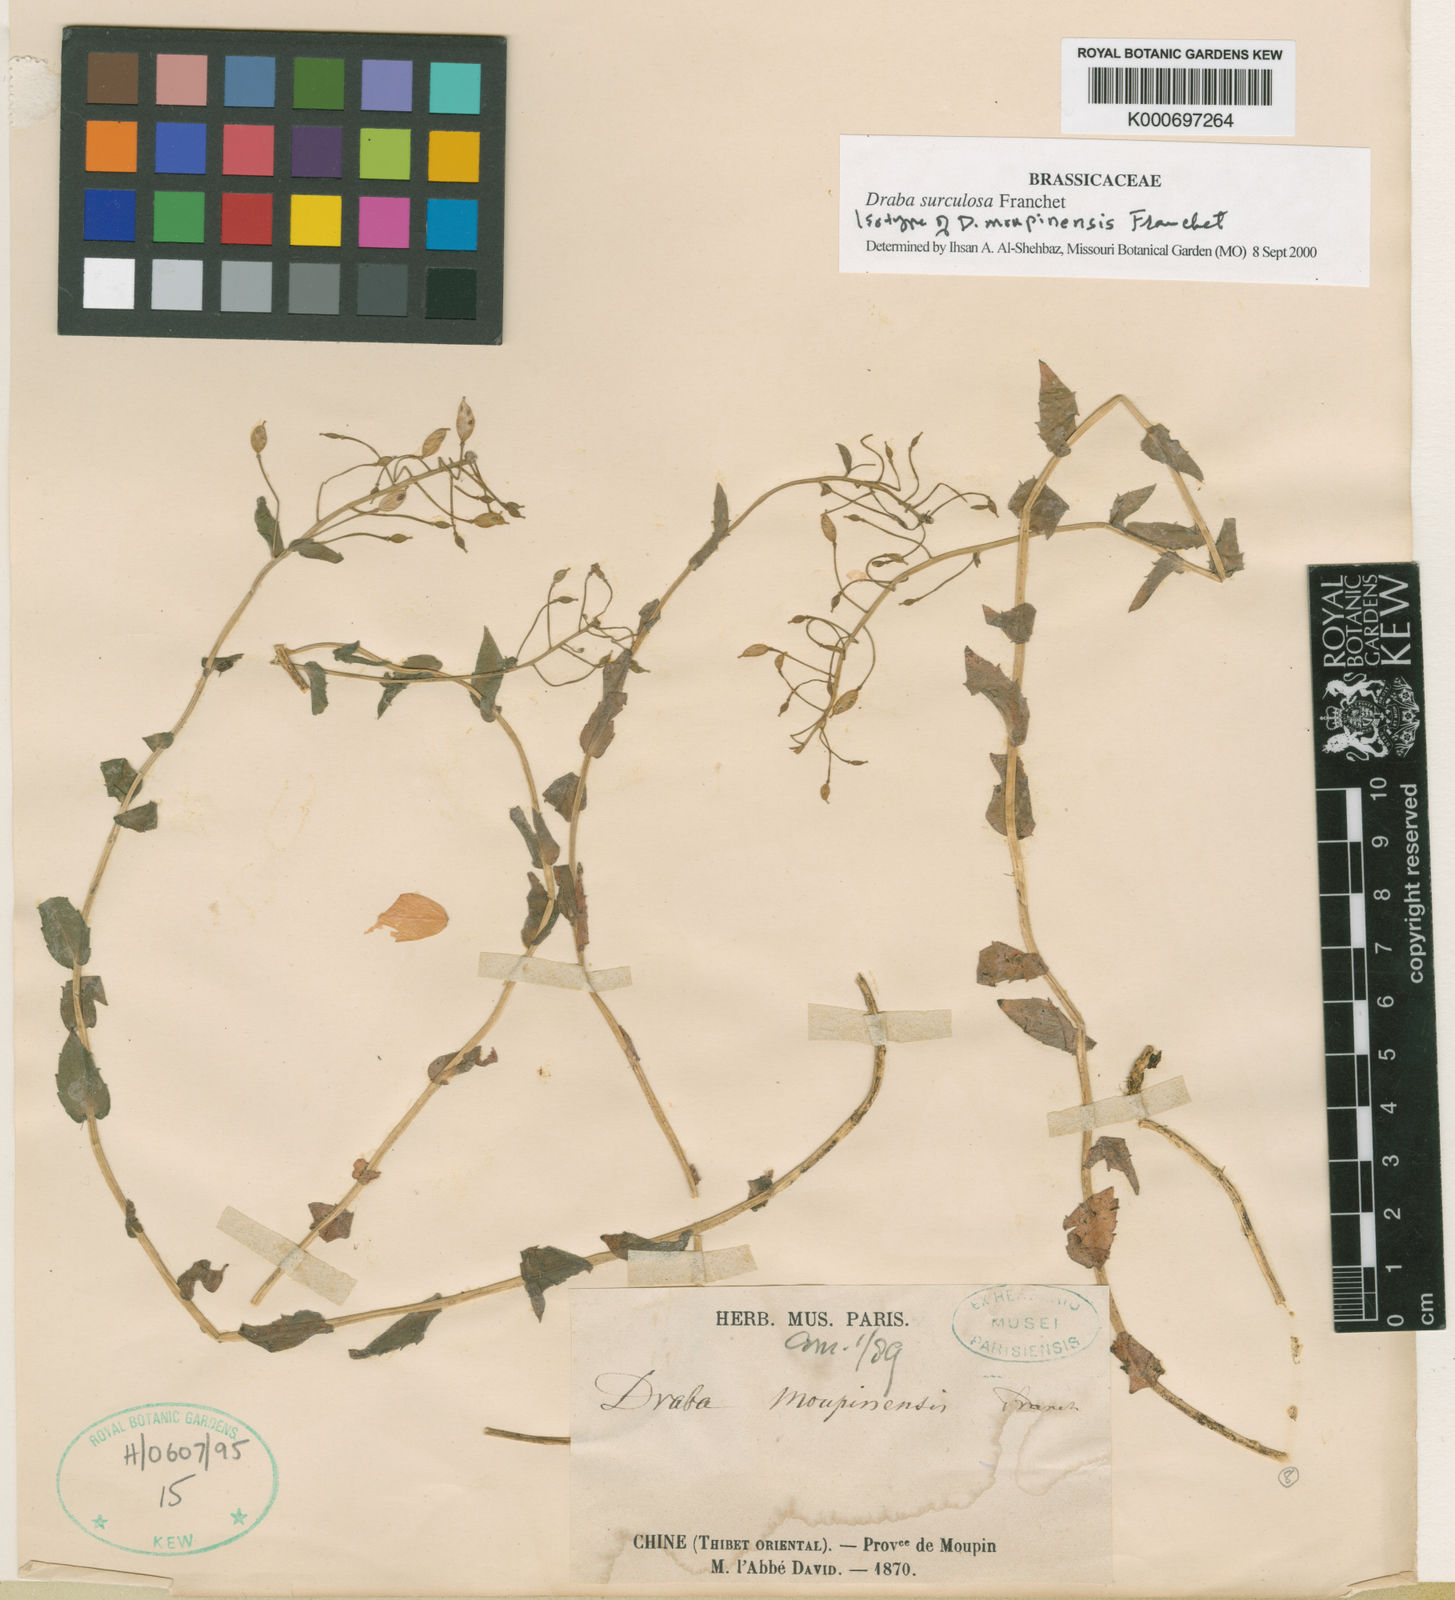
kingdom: Plantae
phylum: Tracheophyta
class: Magnoliopsida
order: Brassicales
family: Brassicaceae
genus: Draba
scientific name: Draba surculosa
